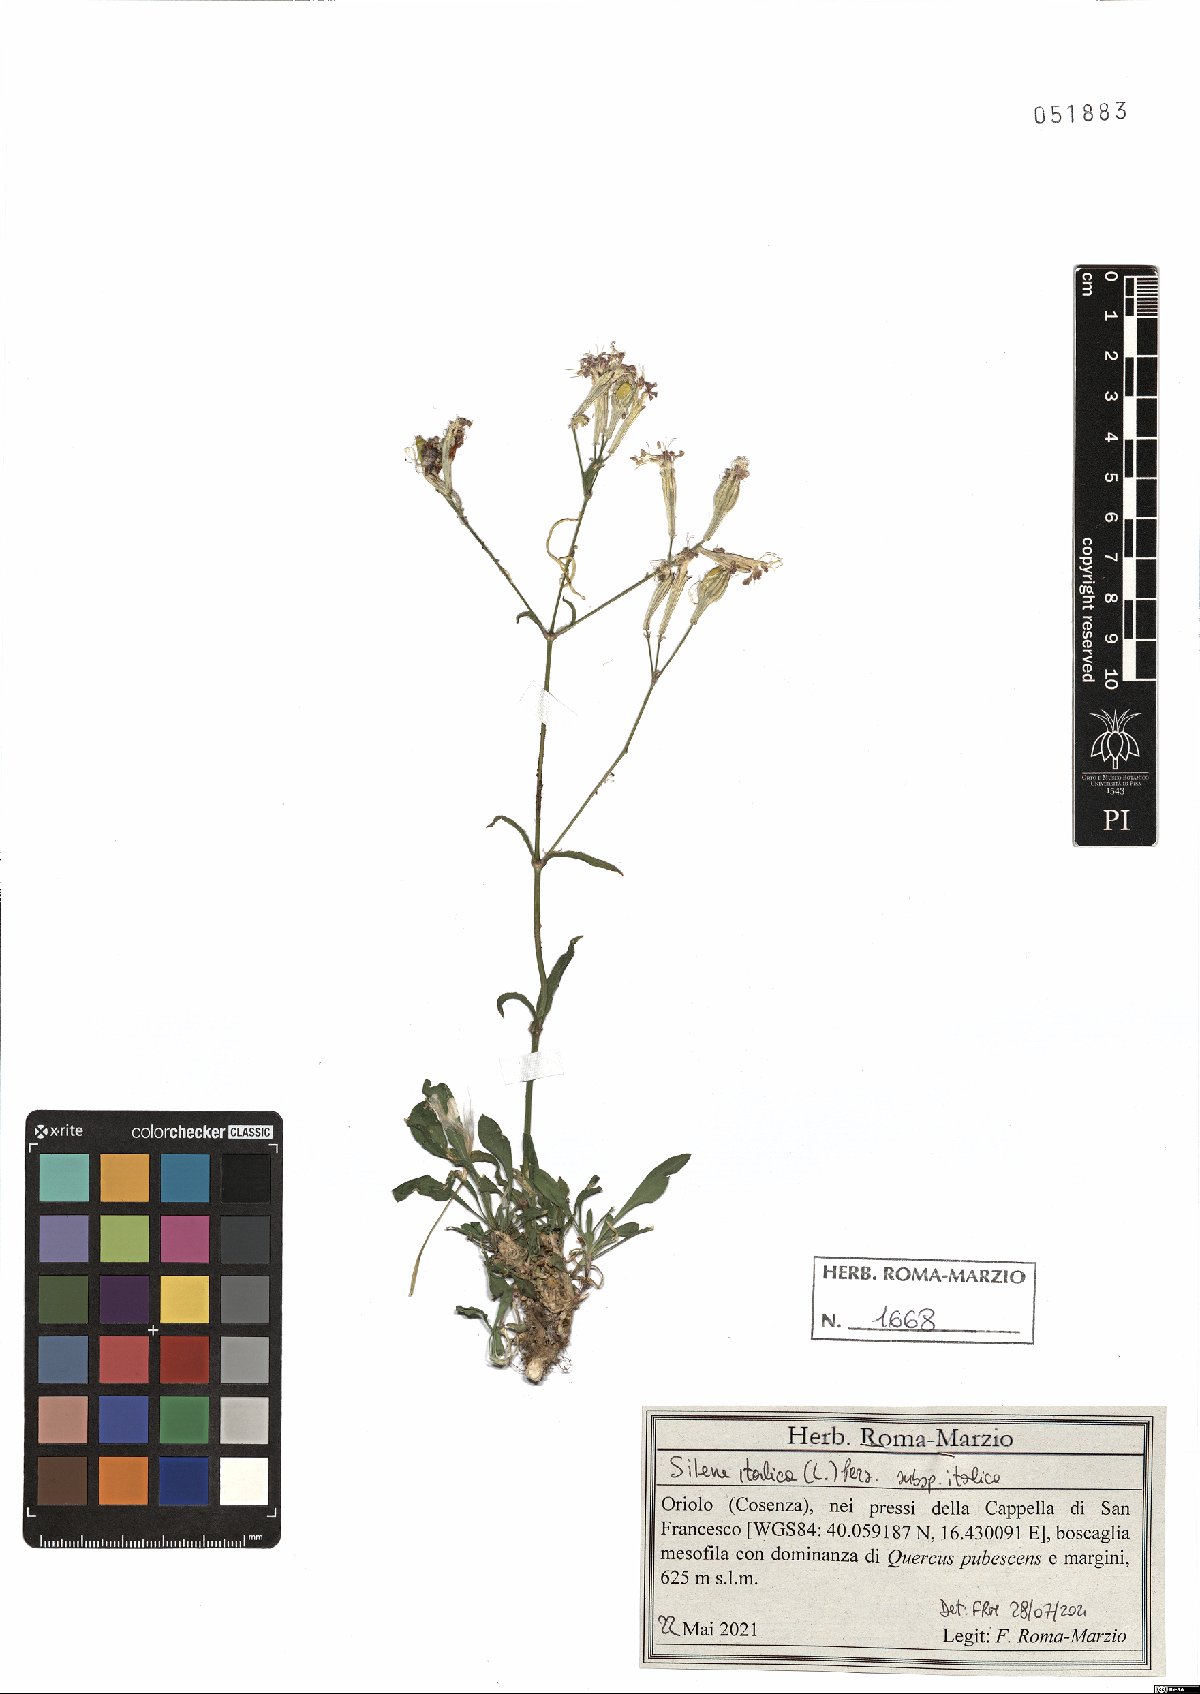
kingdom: Plantae
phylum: Tracheophyta
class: Magnoliopsida
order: Caryophyllales
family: Caryophyllaceae
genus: Silene
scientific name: Silene italica
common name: Italian catchfly
